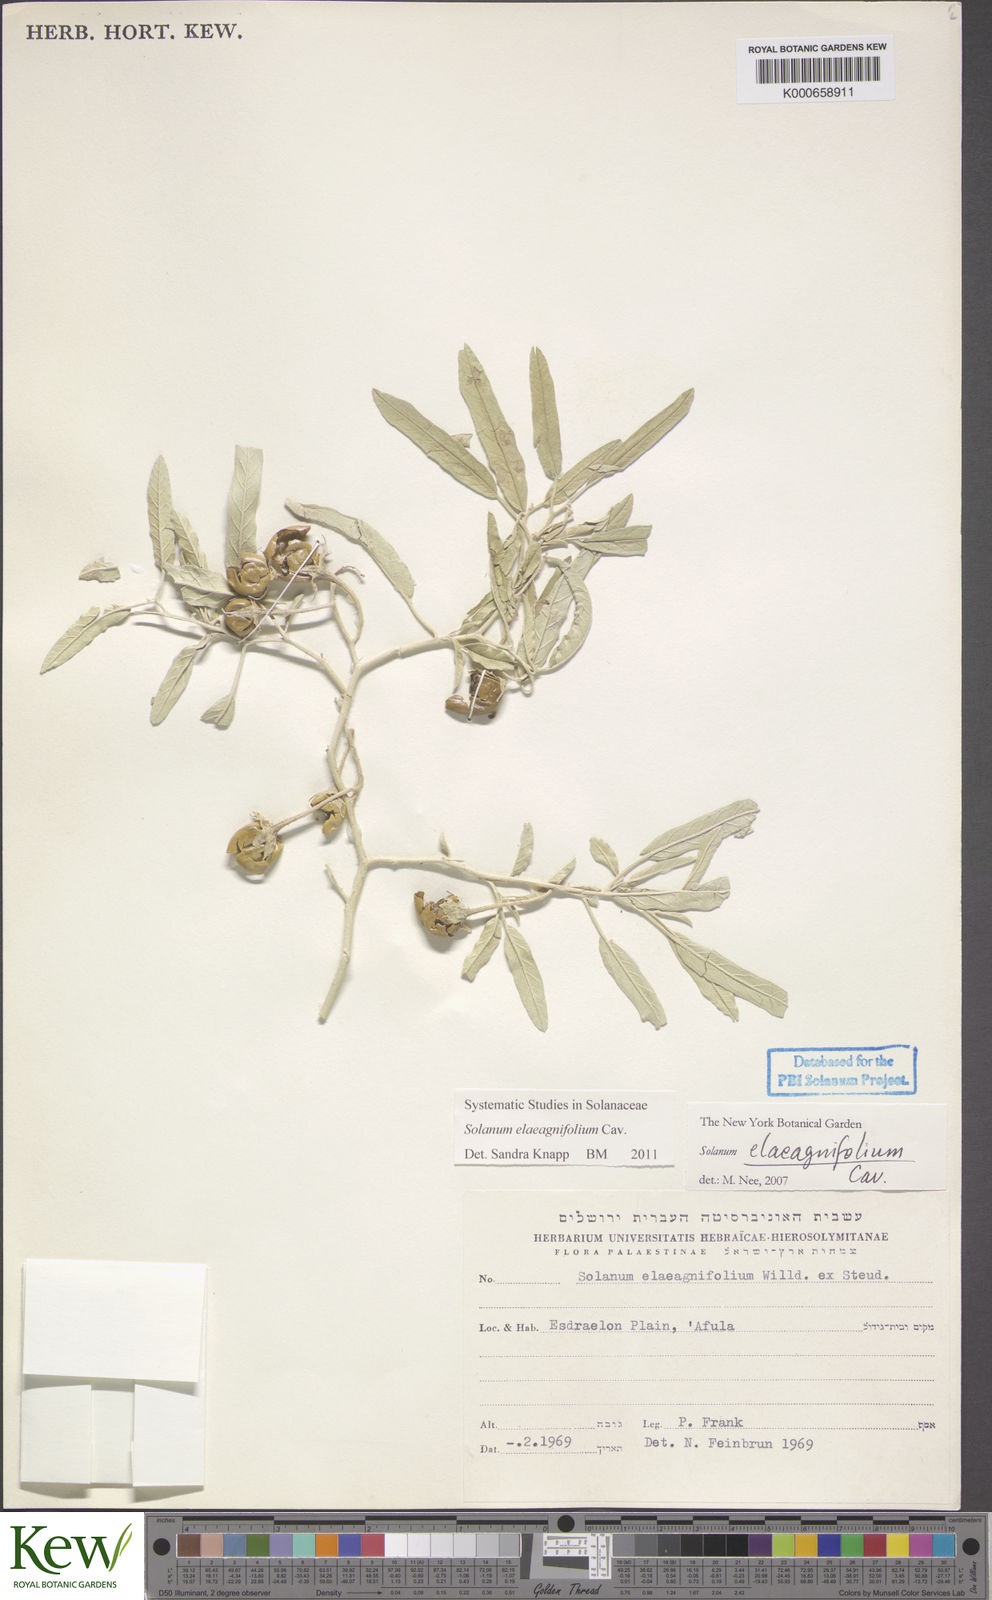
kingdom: Plantae
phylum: Tracheophyta
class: Magnoliopsida
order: Solanales
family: Solanaceae
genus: Solanum
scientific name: Solanum elaeagnifolium
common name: Silverleaf nightshade
